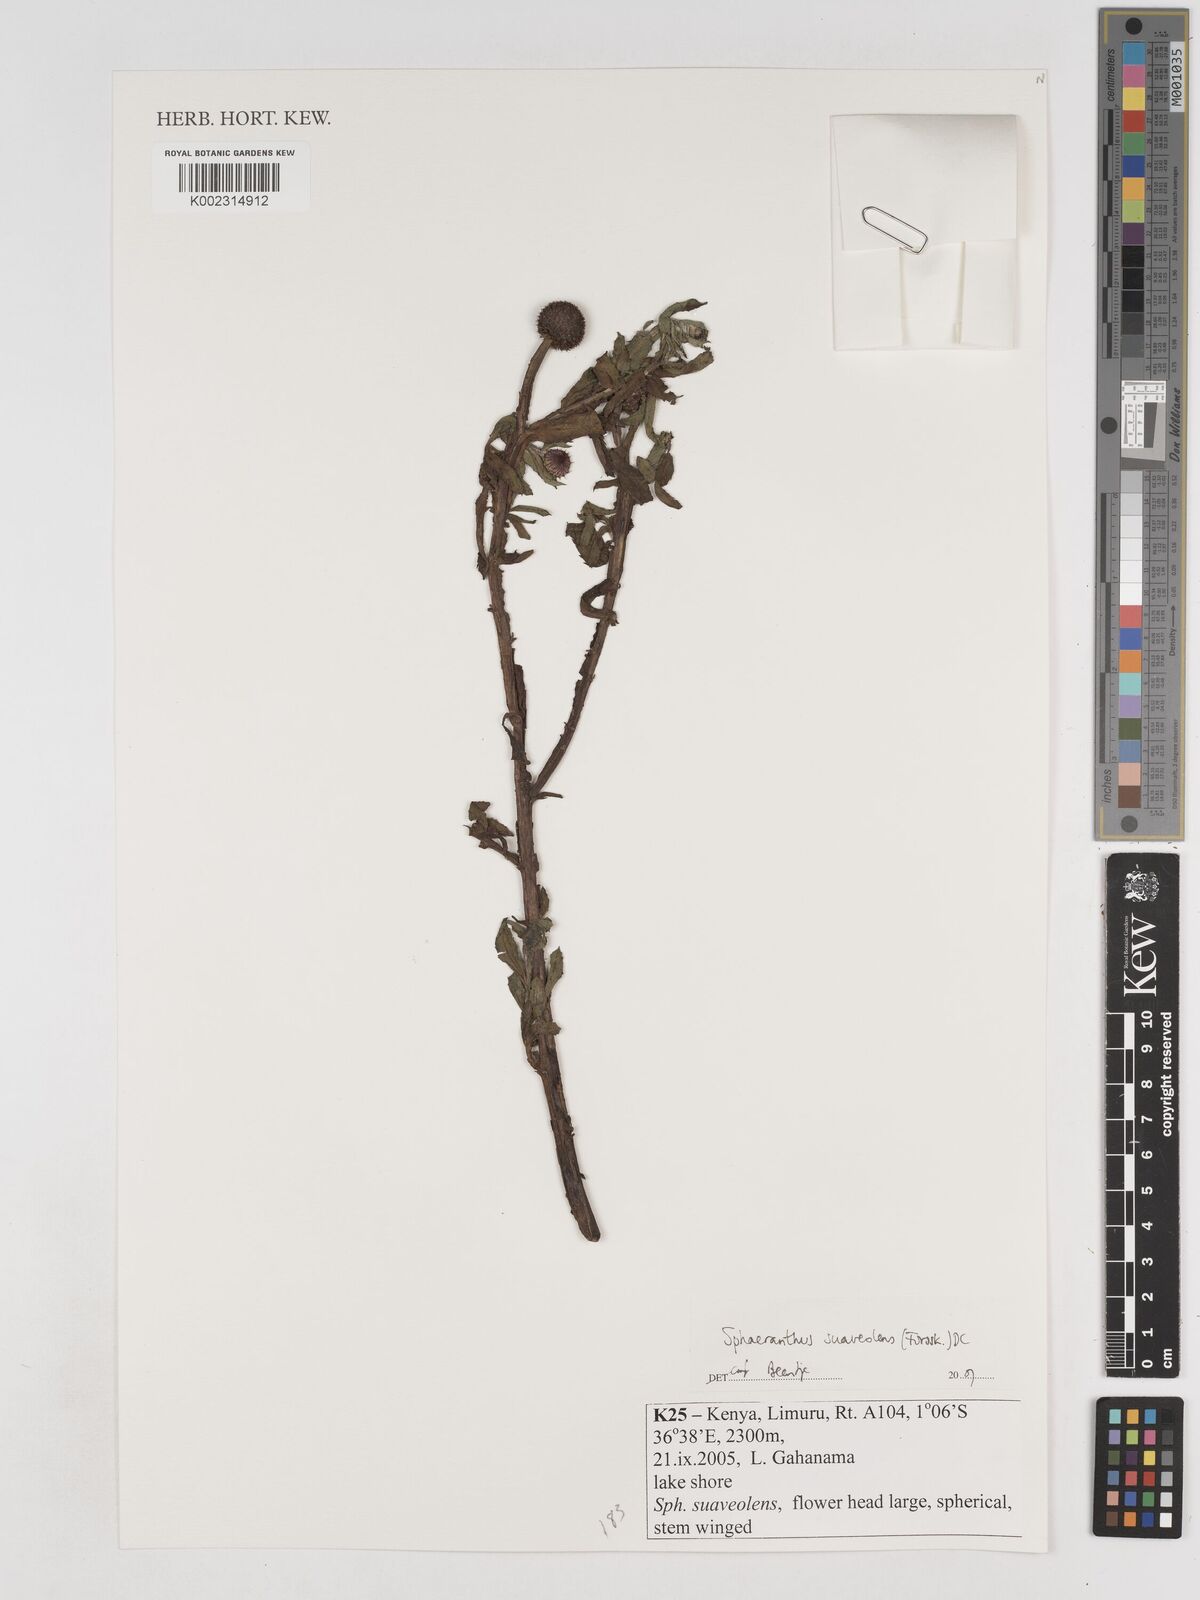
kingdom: Plantae
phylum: Tracheophyta
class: Magnoliopsida
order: Asterales
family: Asteraceae
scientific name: Asteraceae
